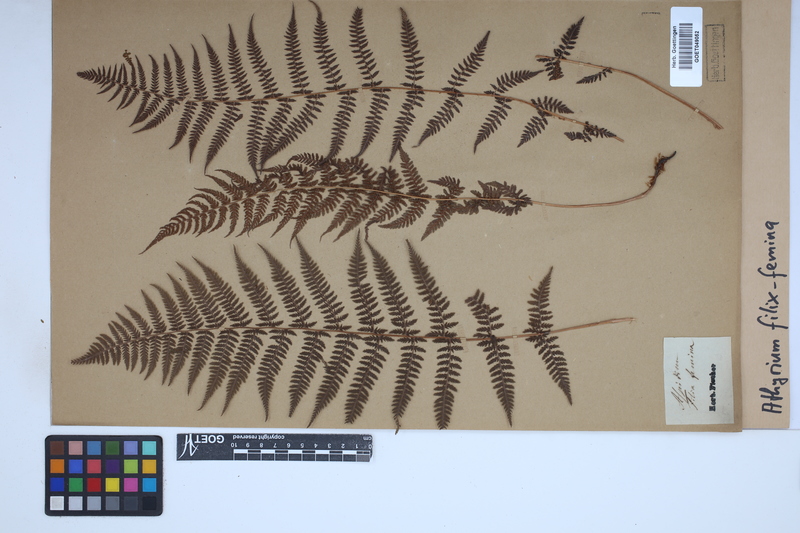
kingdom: Plantae
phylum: Tracheophyta
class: Polypodiopsida
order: Polypodiales
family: Athyriaceae
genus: Athyrium
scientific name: Athyrium filix-femina
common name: Lady fern
